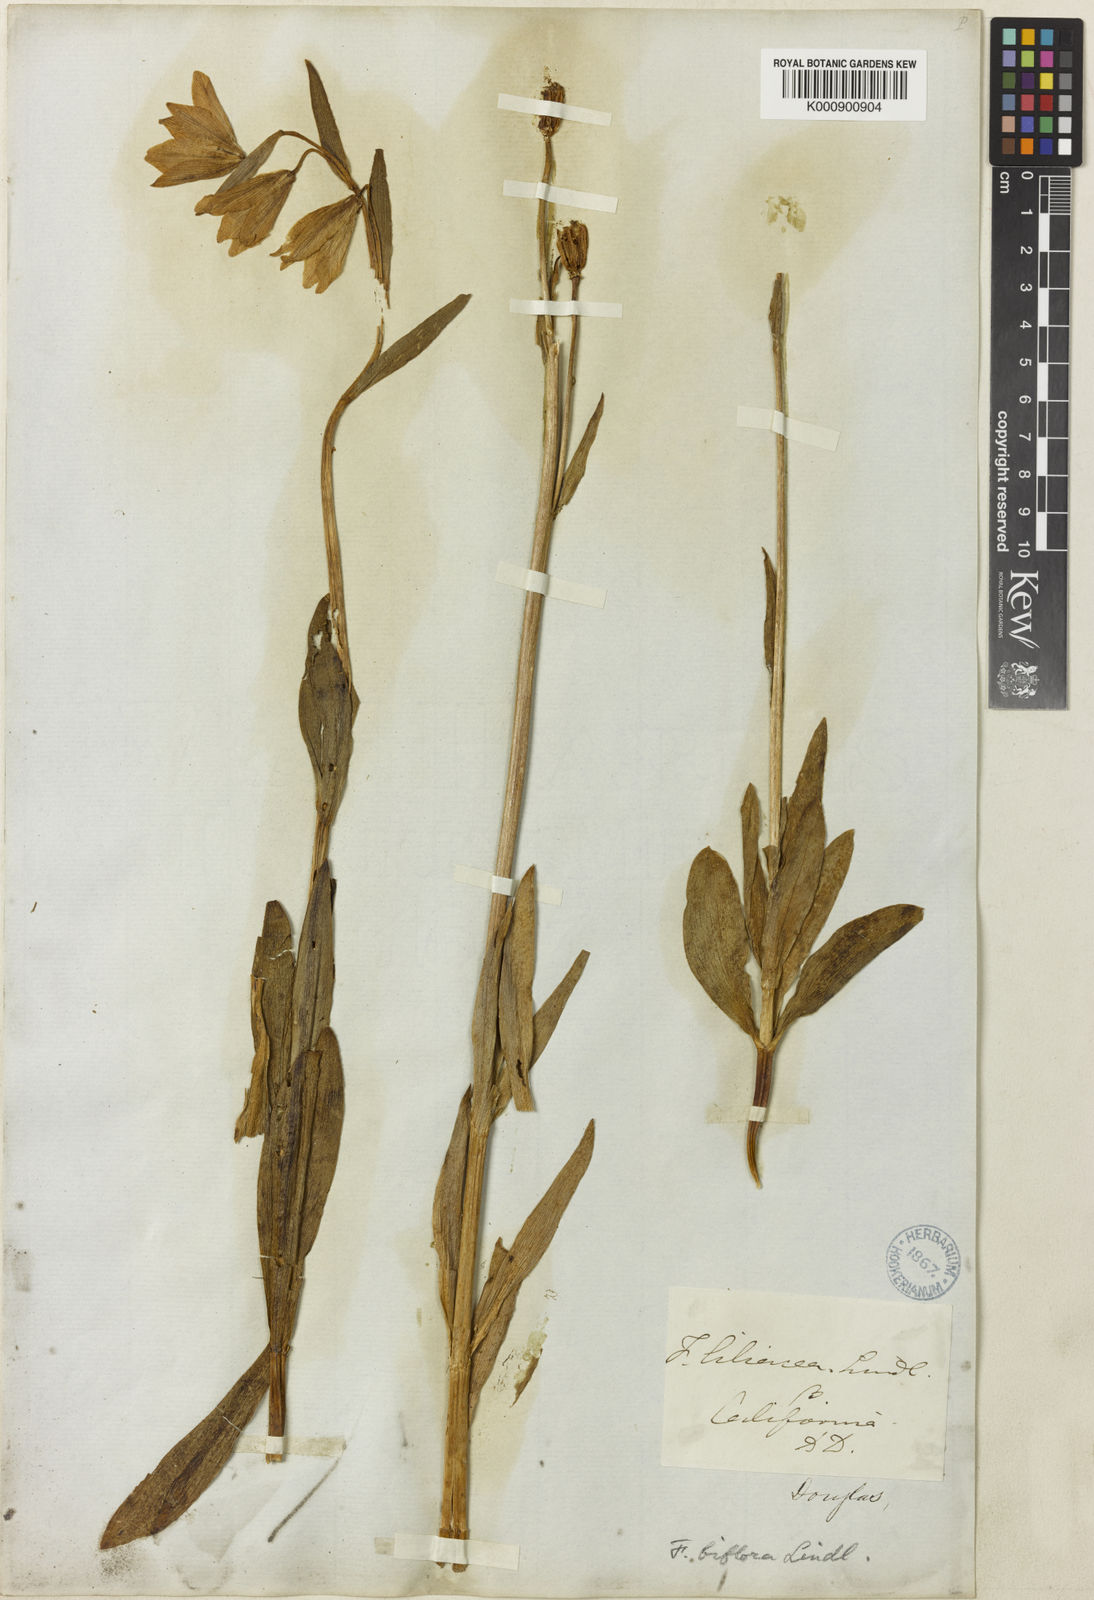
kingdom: Plantae
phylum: Tracheophyta
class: Liliopsida
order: Liliales
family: Liliaceae
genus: Fritillaria
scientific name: Fritillaria liliacea
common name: Fragrant fritillary
